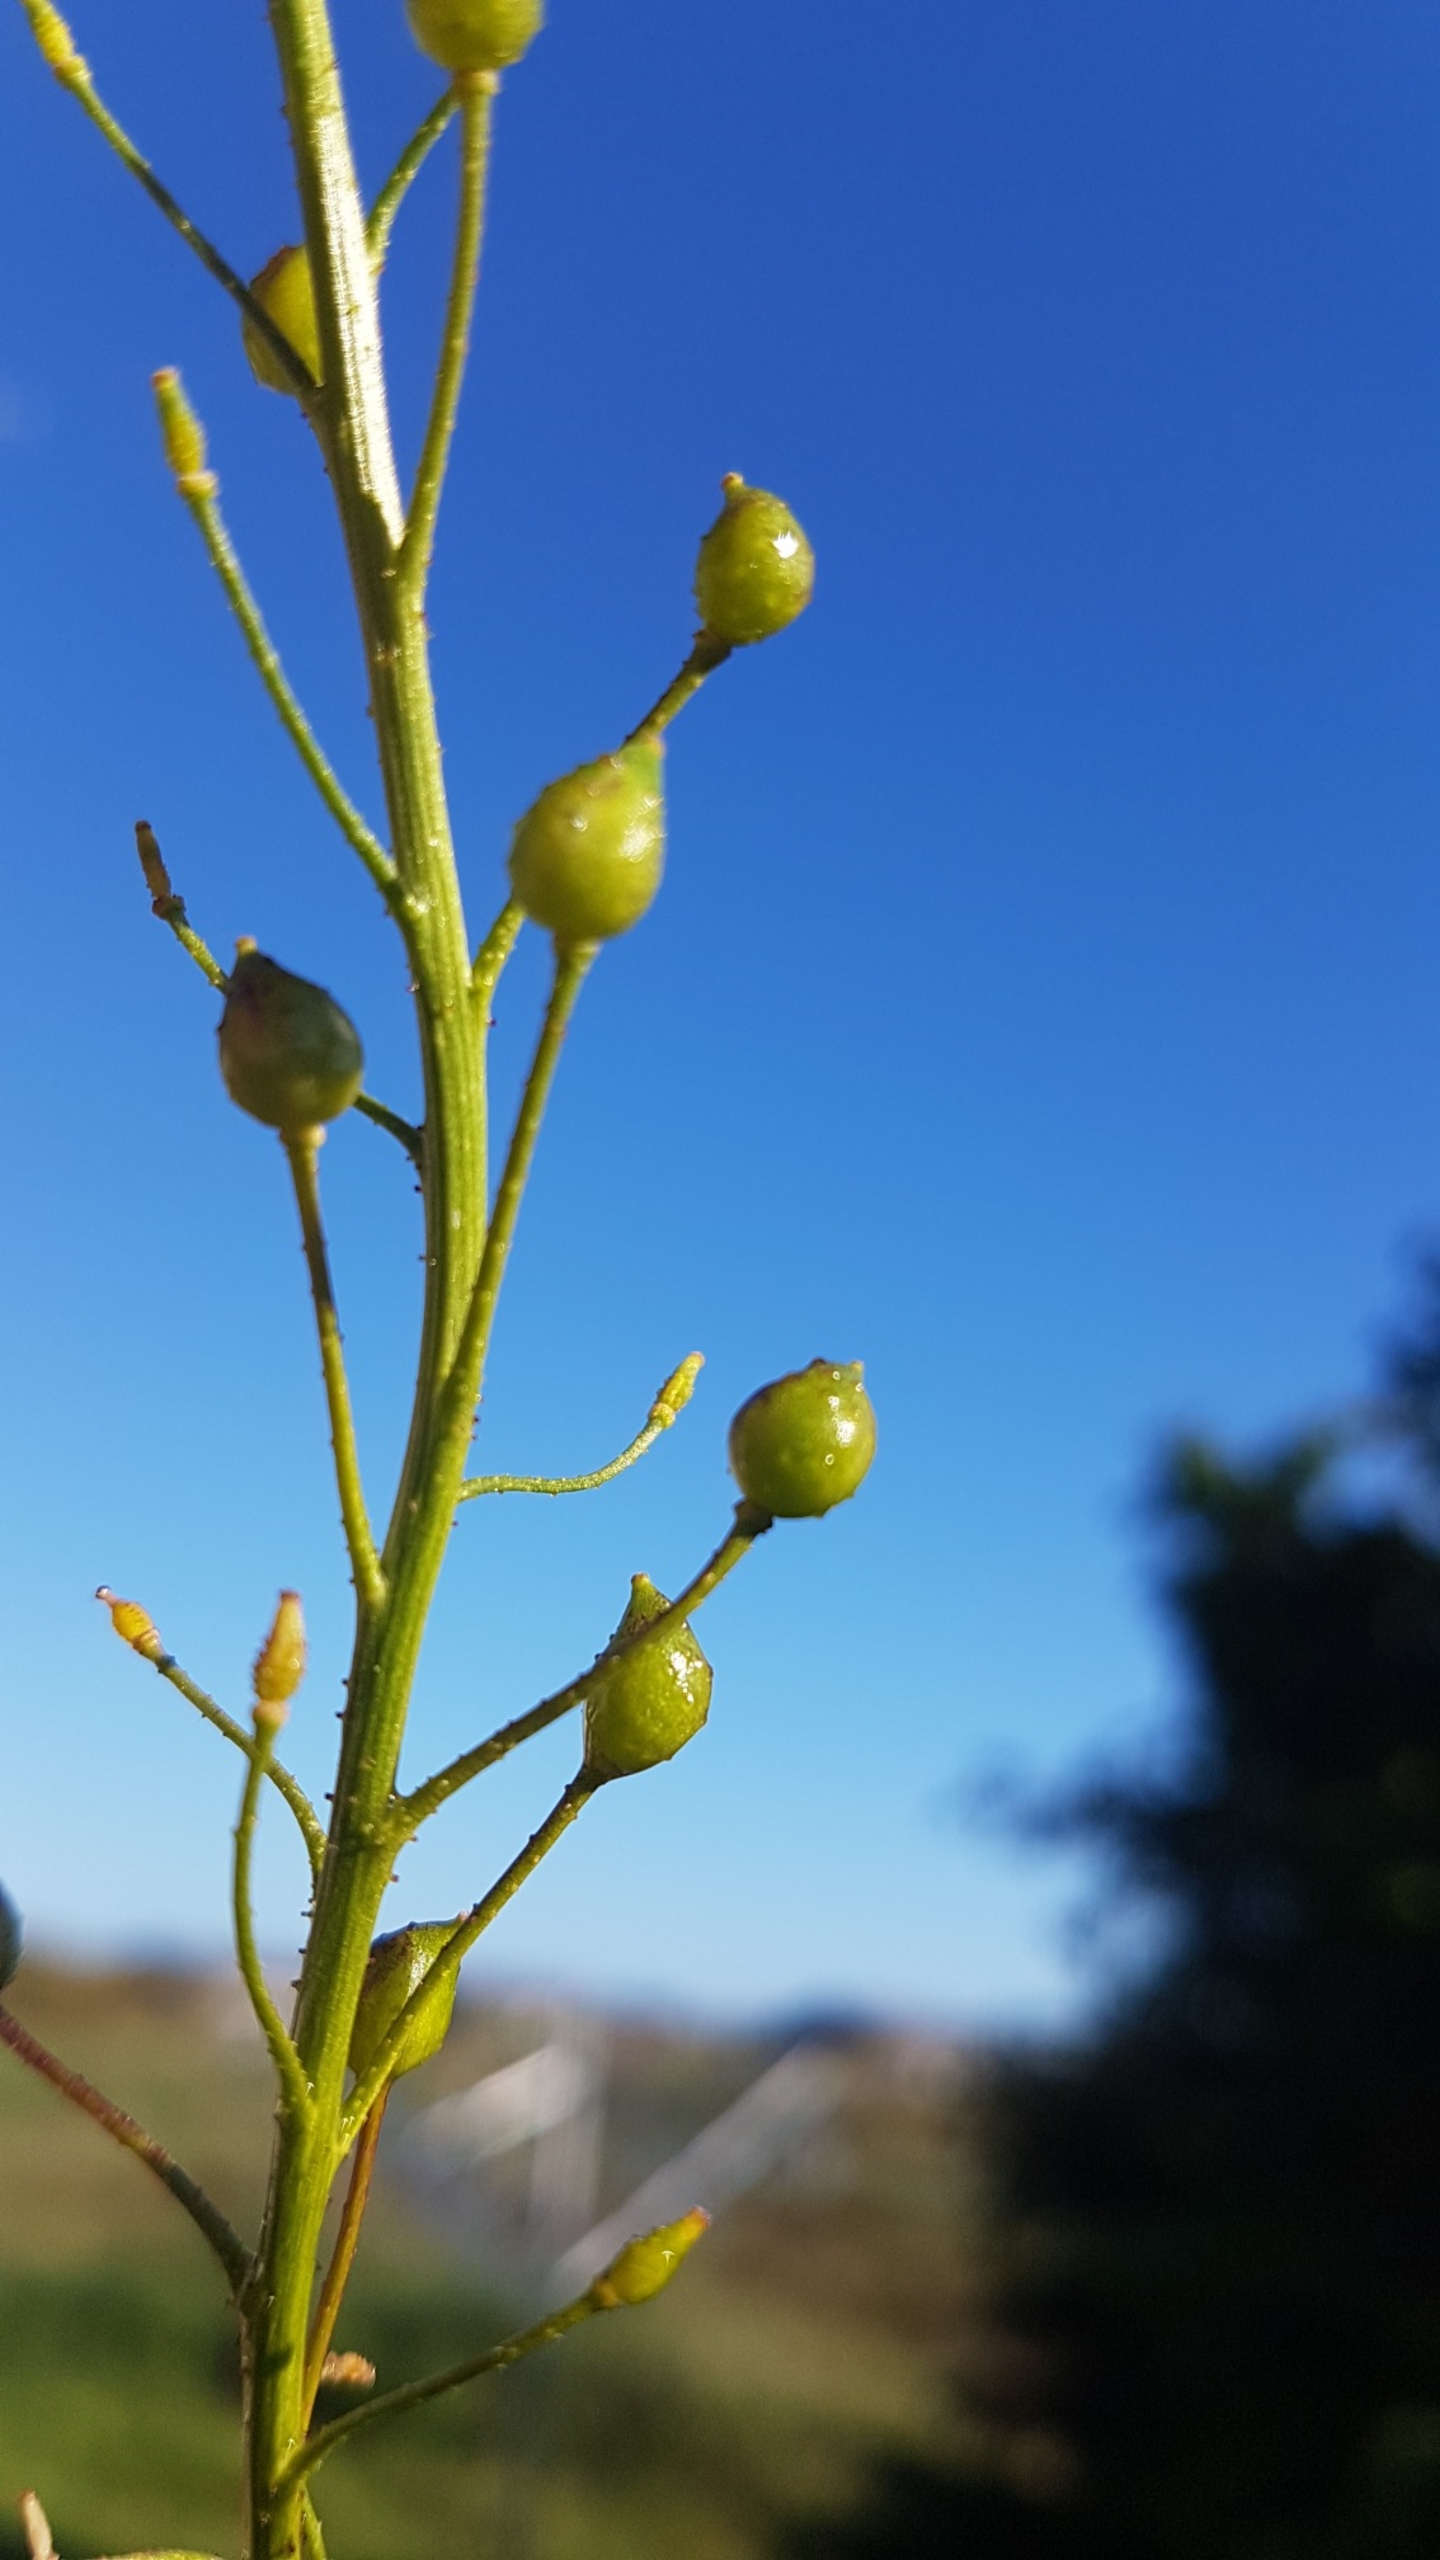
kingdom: Plantae
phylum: Tracheophyta
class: Magnoliopsida
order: Brassicales
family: Brassicaceae
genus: Bunias
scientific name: Bunias orientalis
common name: Takkeklap
